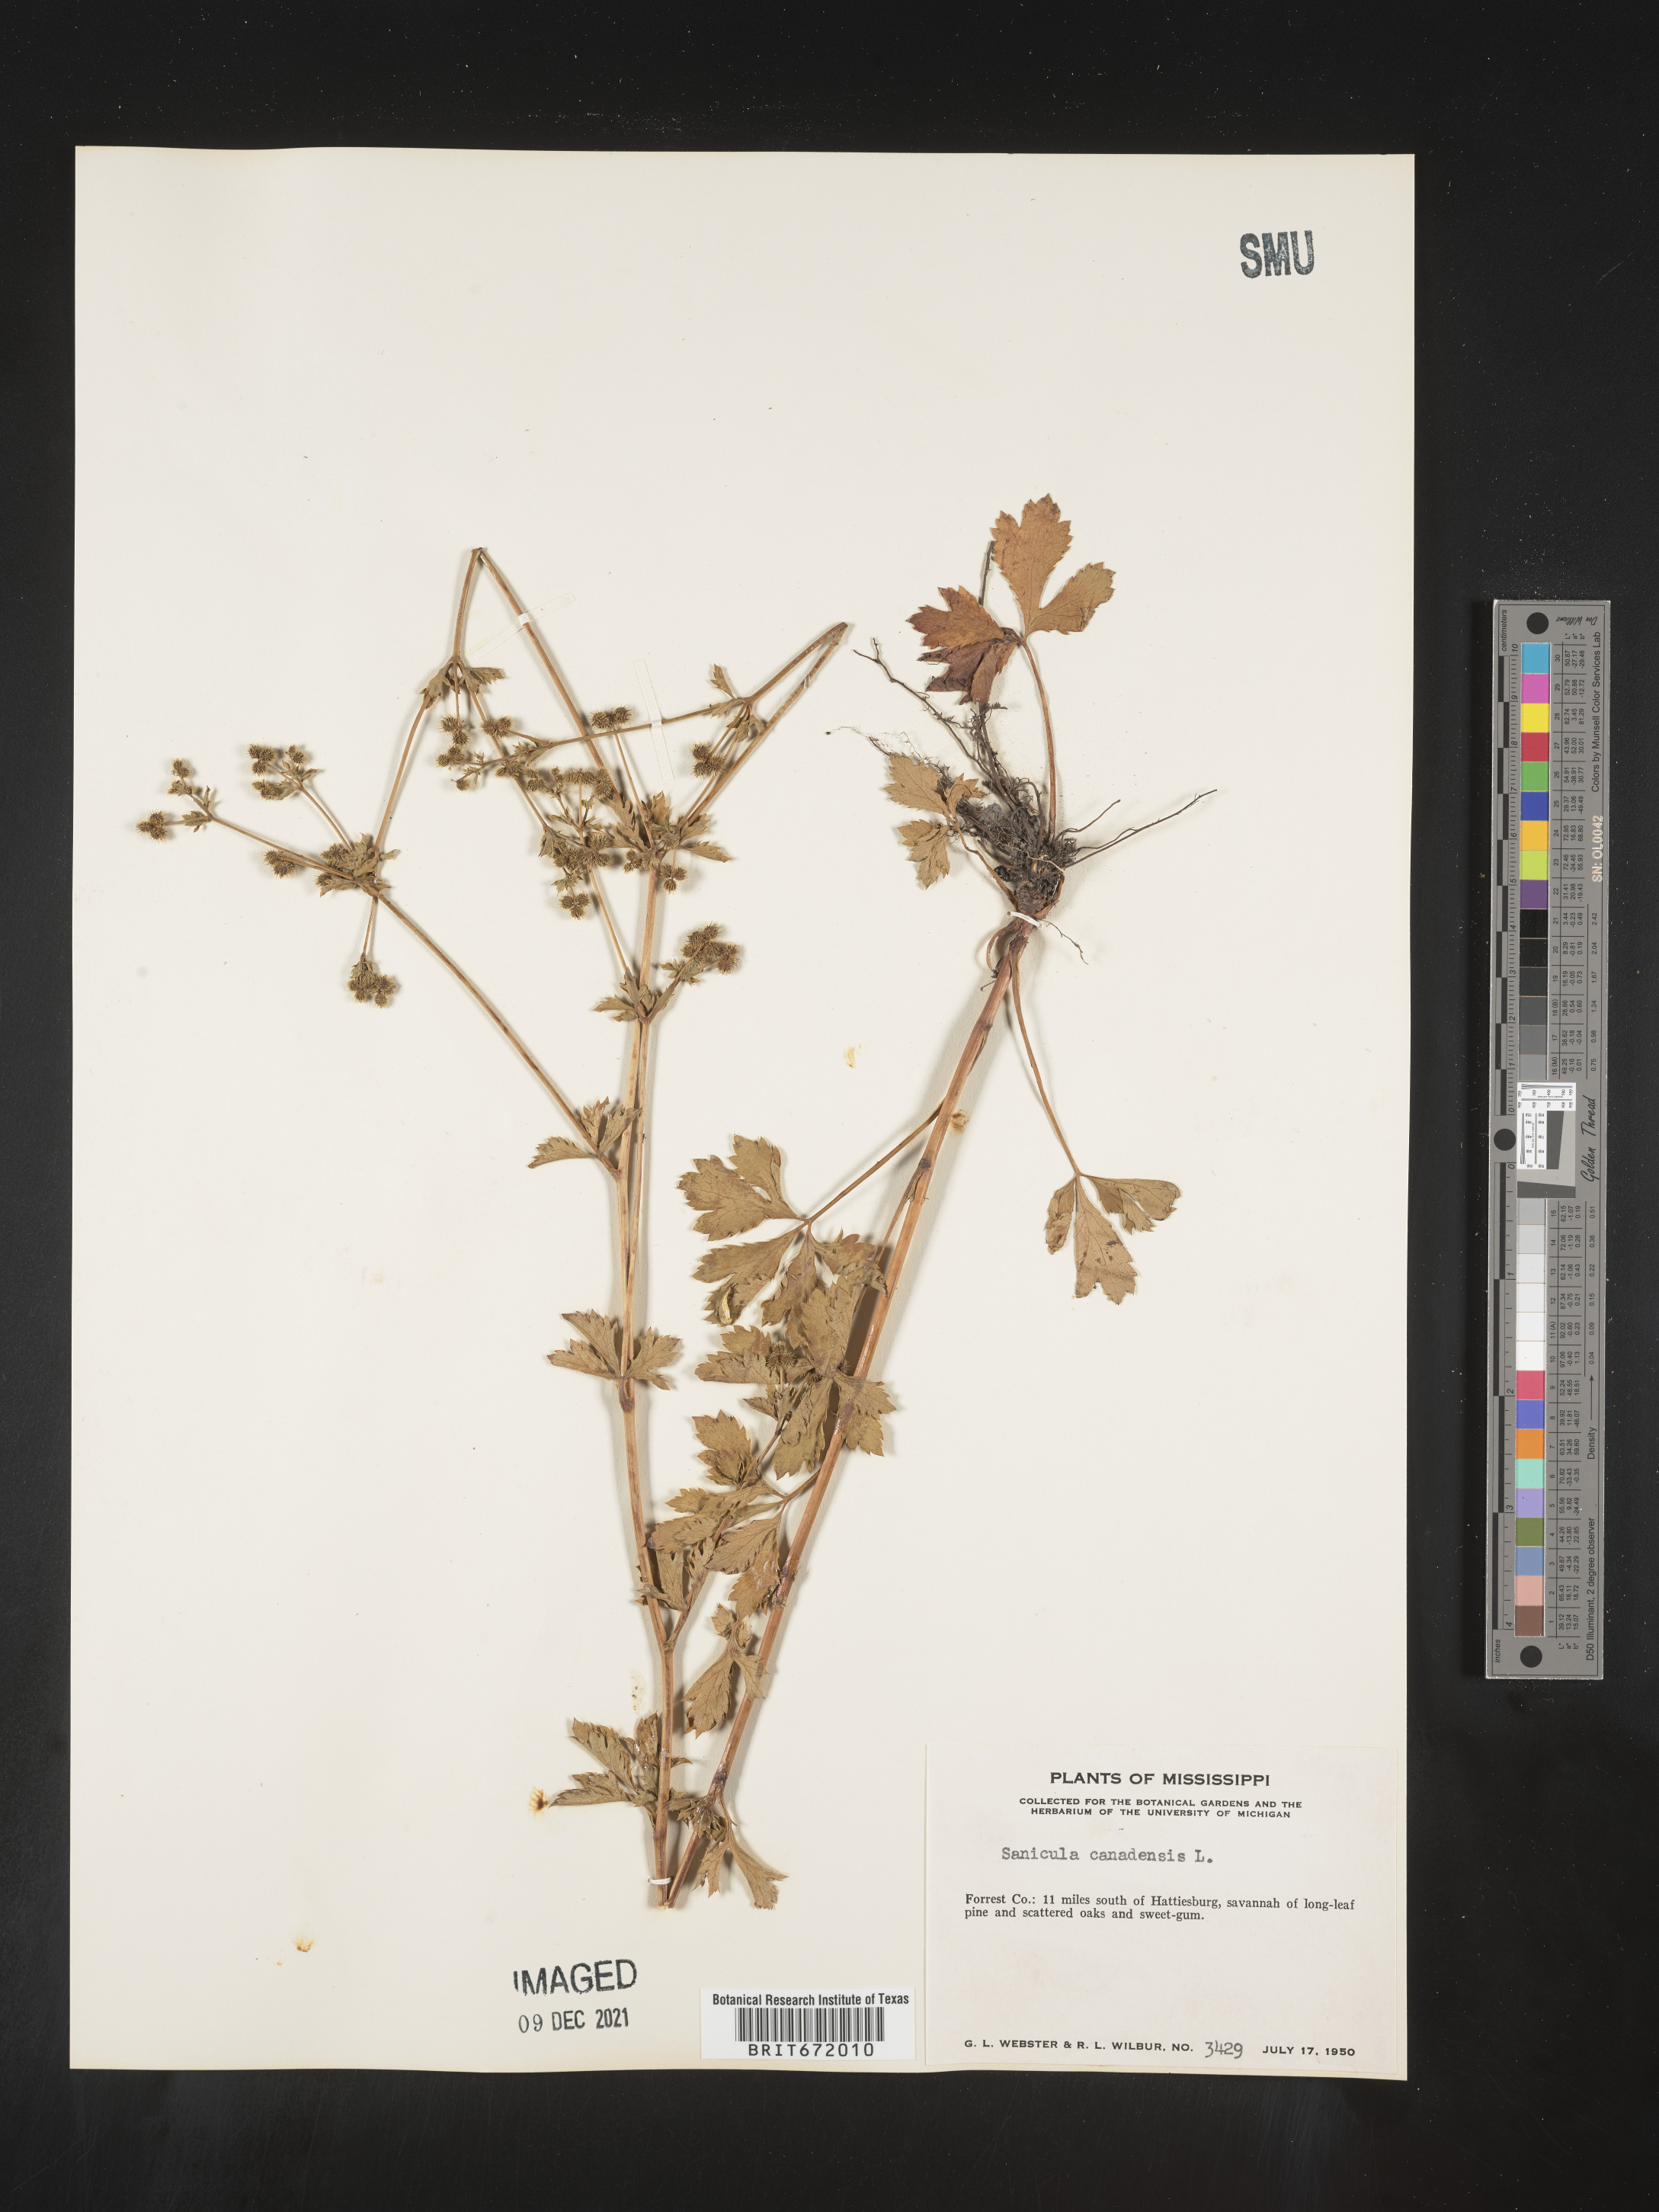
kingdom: Plantae
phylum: Tracheophyta
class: Magnoliopsida
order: Apiales
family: Apiaceae
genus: Sanicula
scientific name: Sanicula canadensis
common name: Canada sanicle
